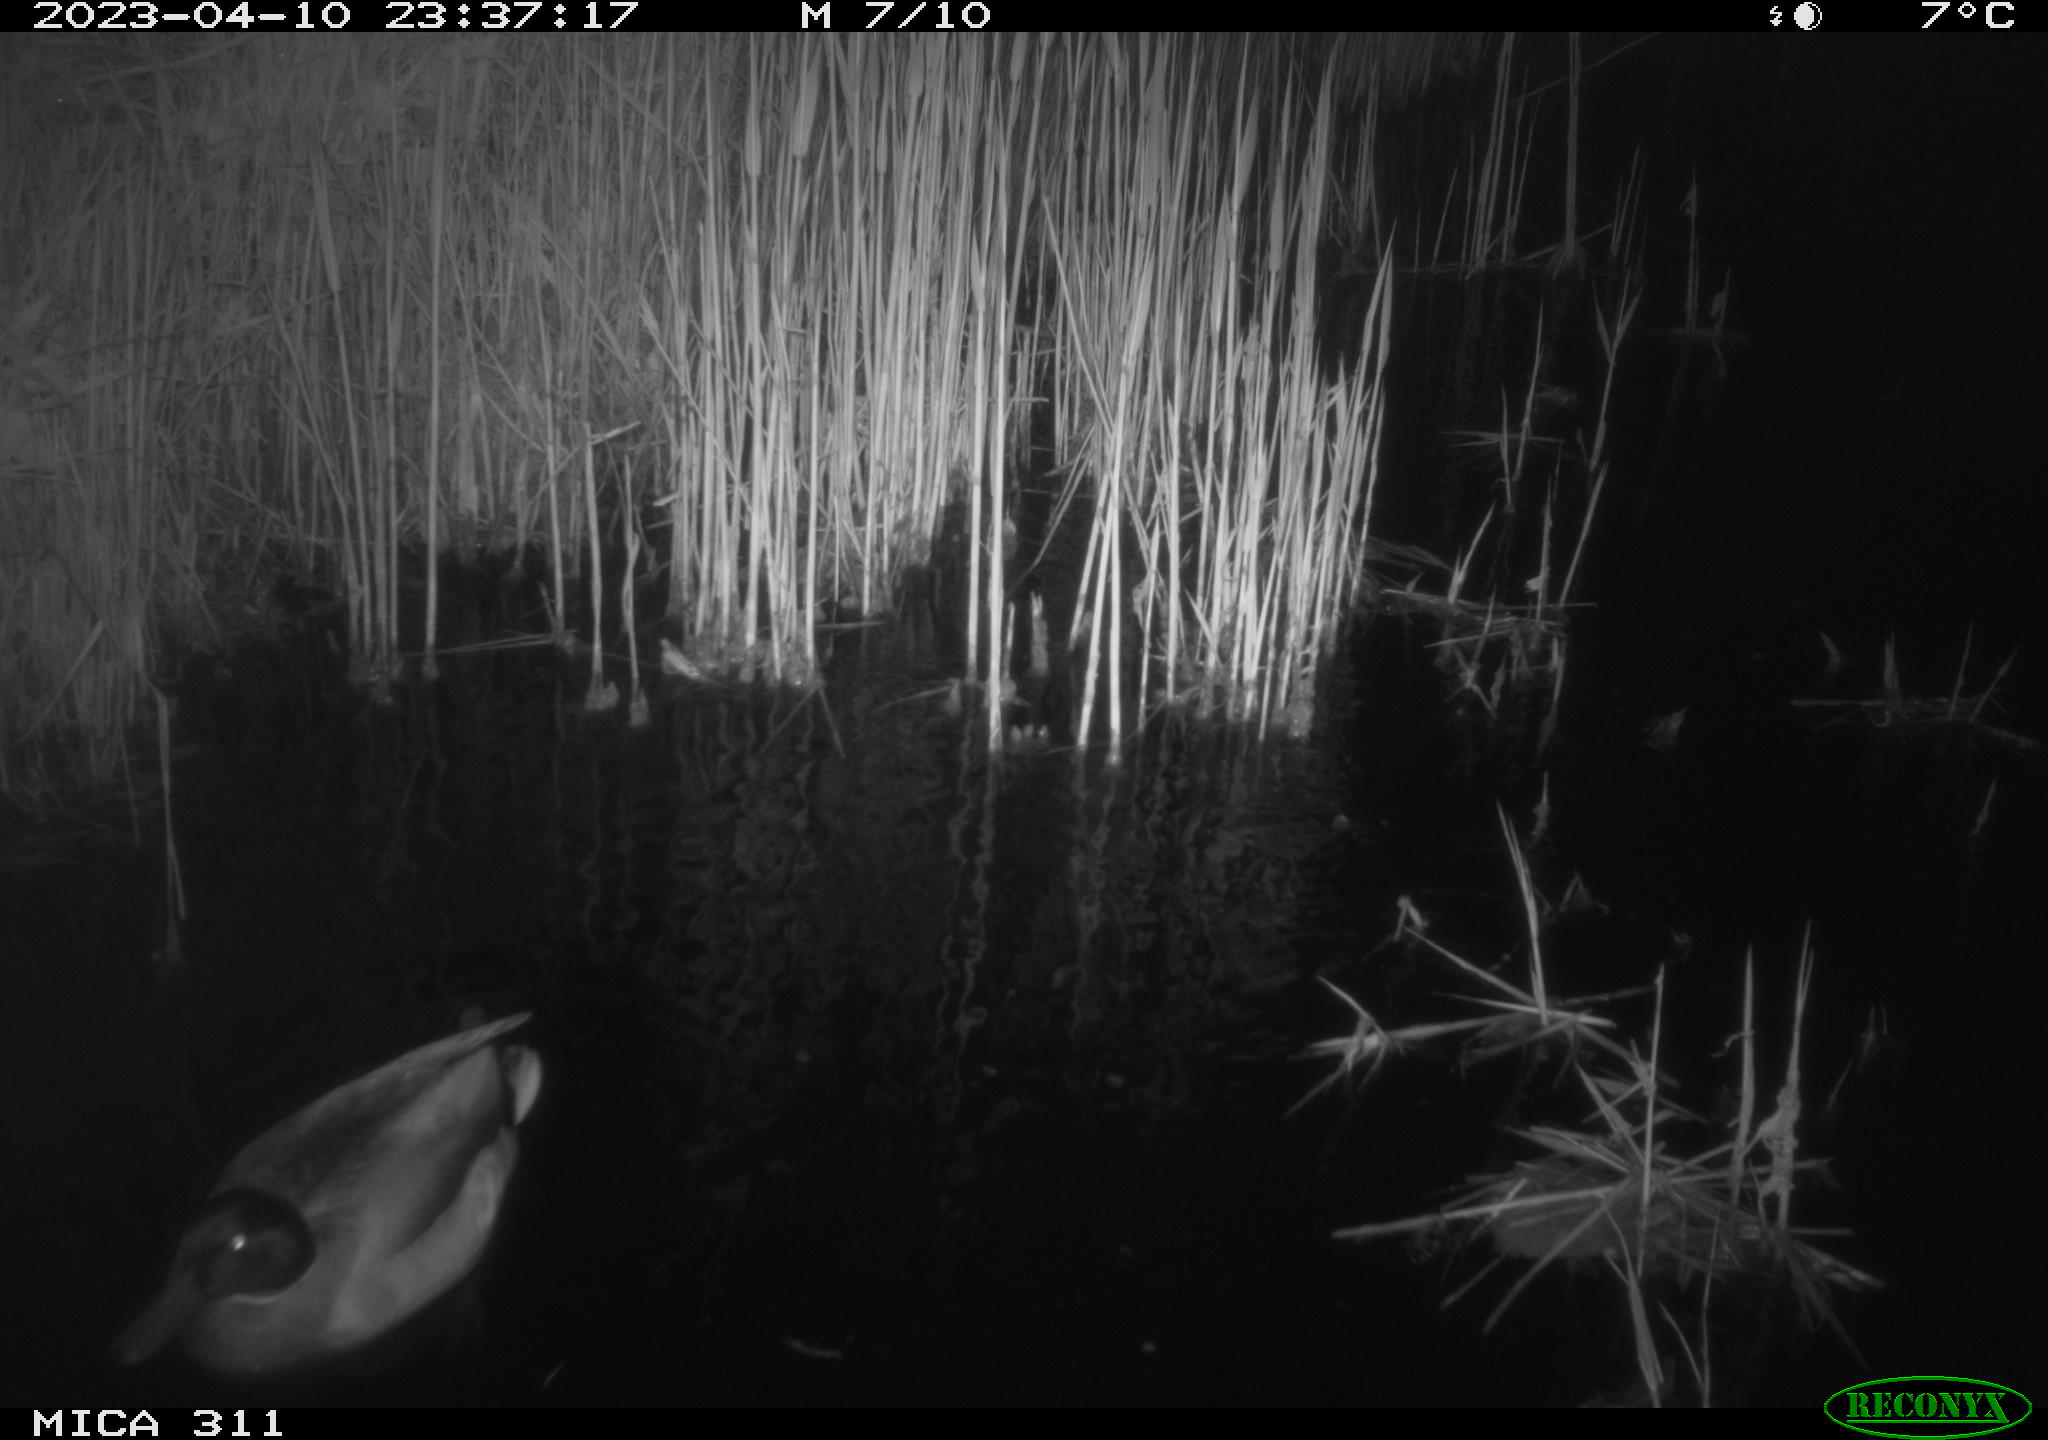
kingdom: Animalia
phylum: Chordata
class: Aves
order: Anseriformes
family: Anatidae
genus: Anas
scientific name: Anas
